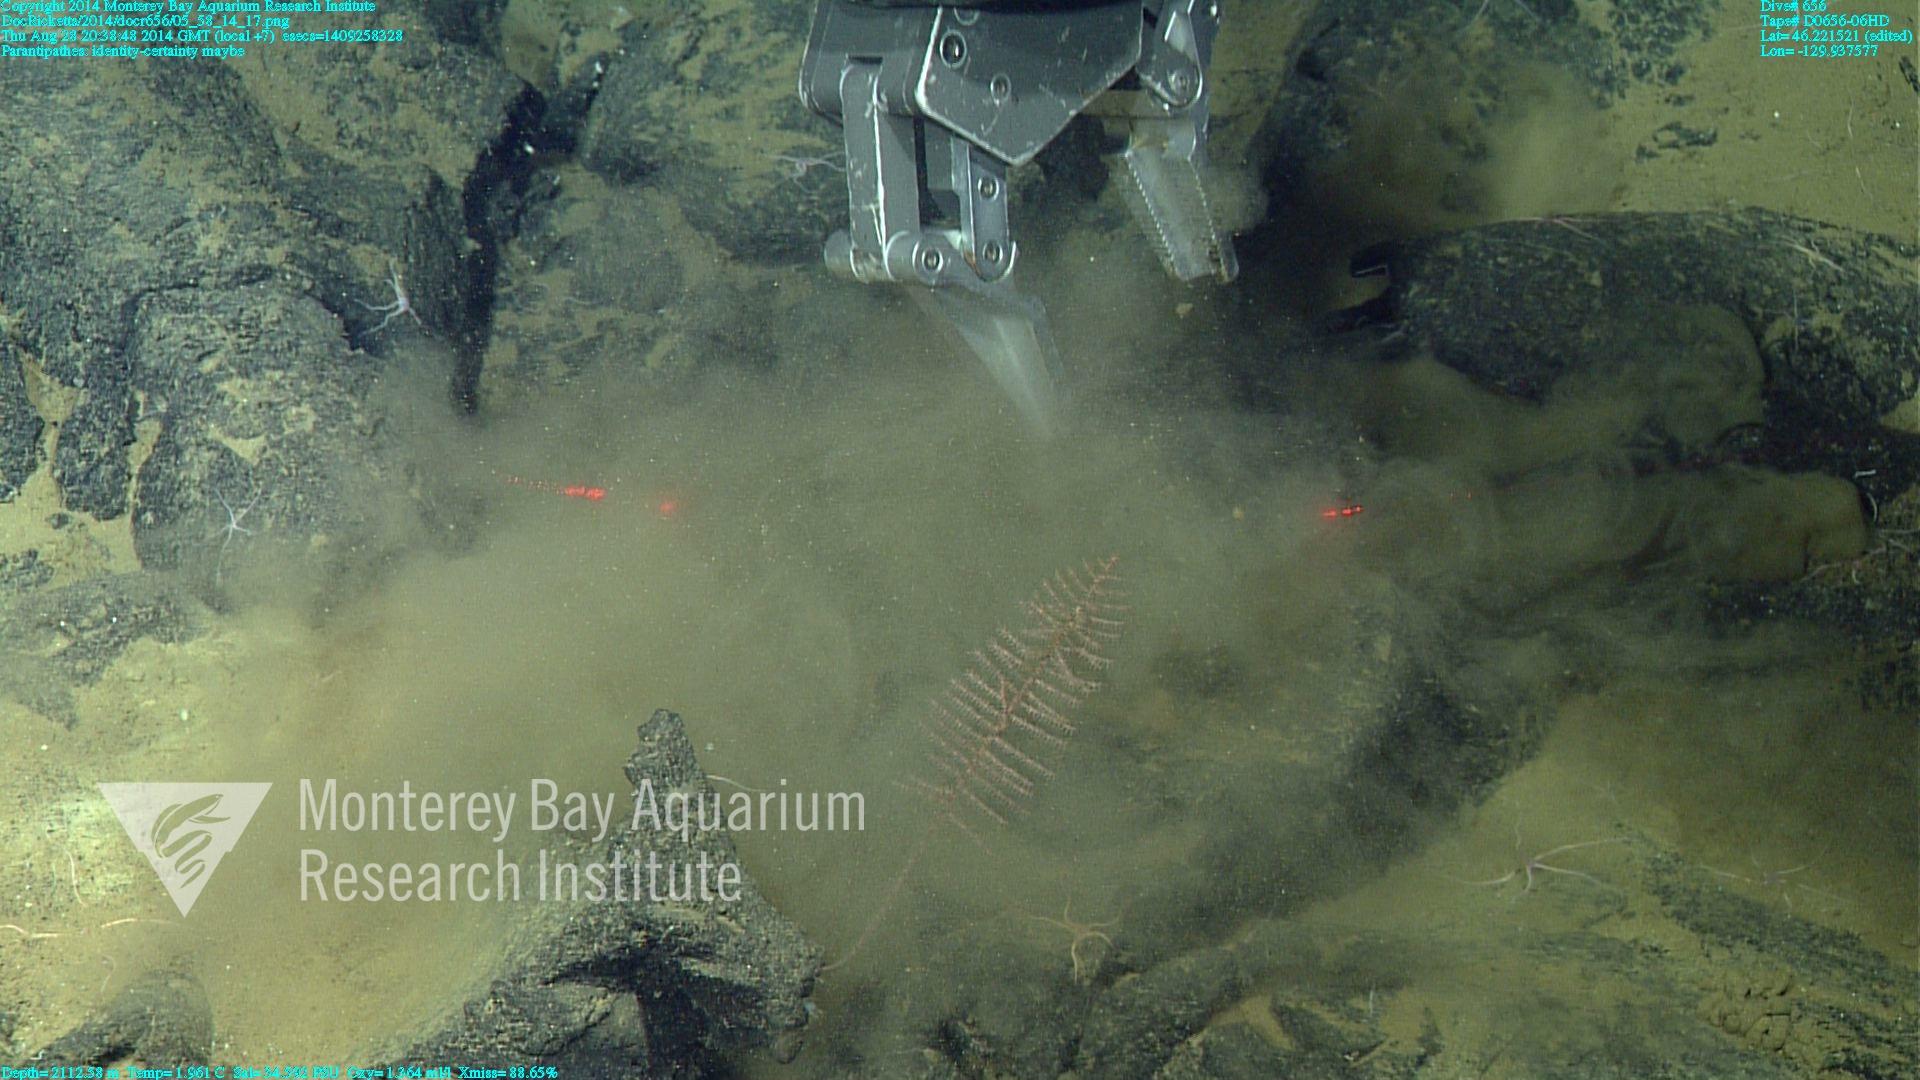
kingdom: Animalia
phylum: Cnidaria
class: Anthozoa
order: Antipatharia
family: Schizopathidae
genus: Parantipathes
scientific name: Parantipathes
